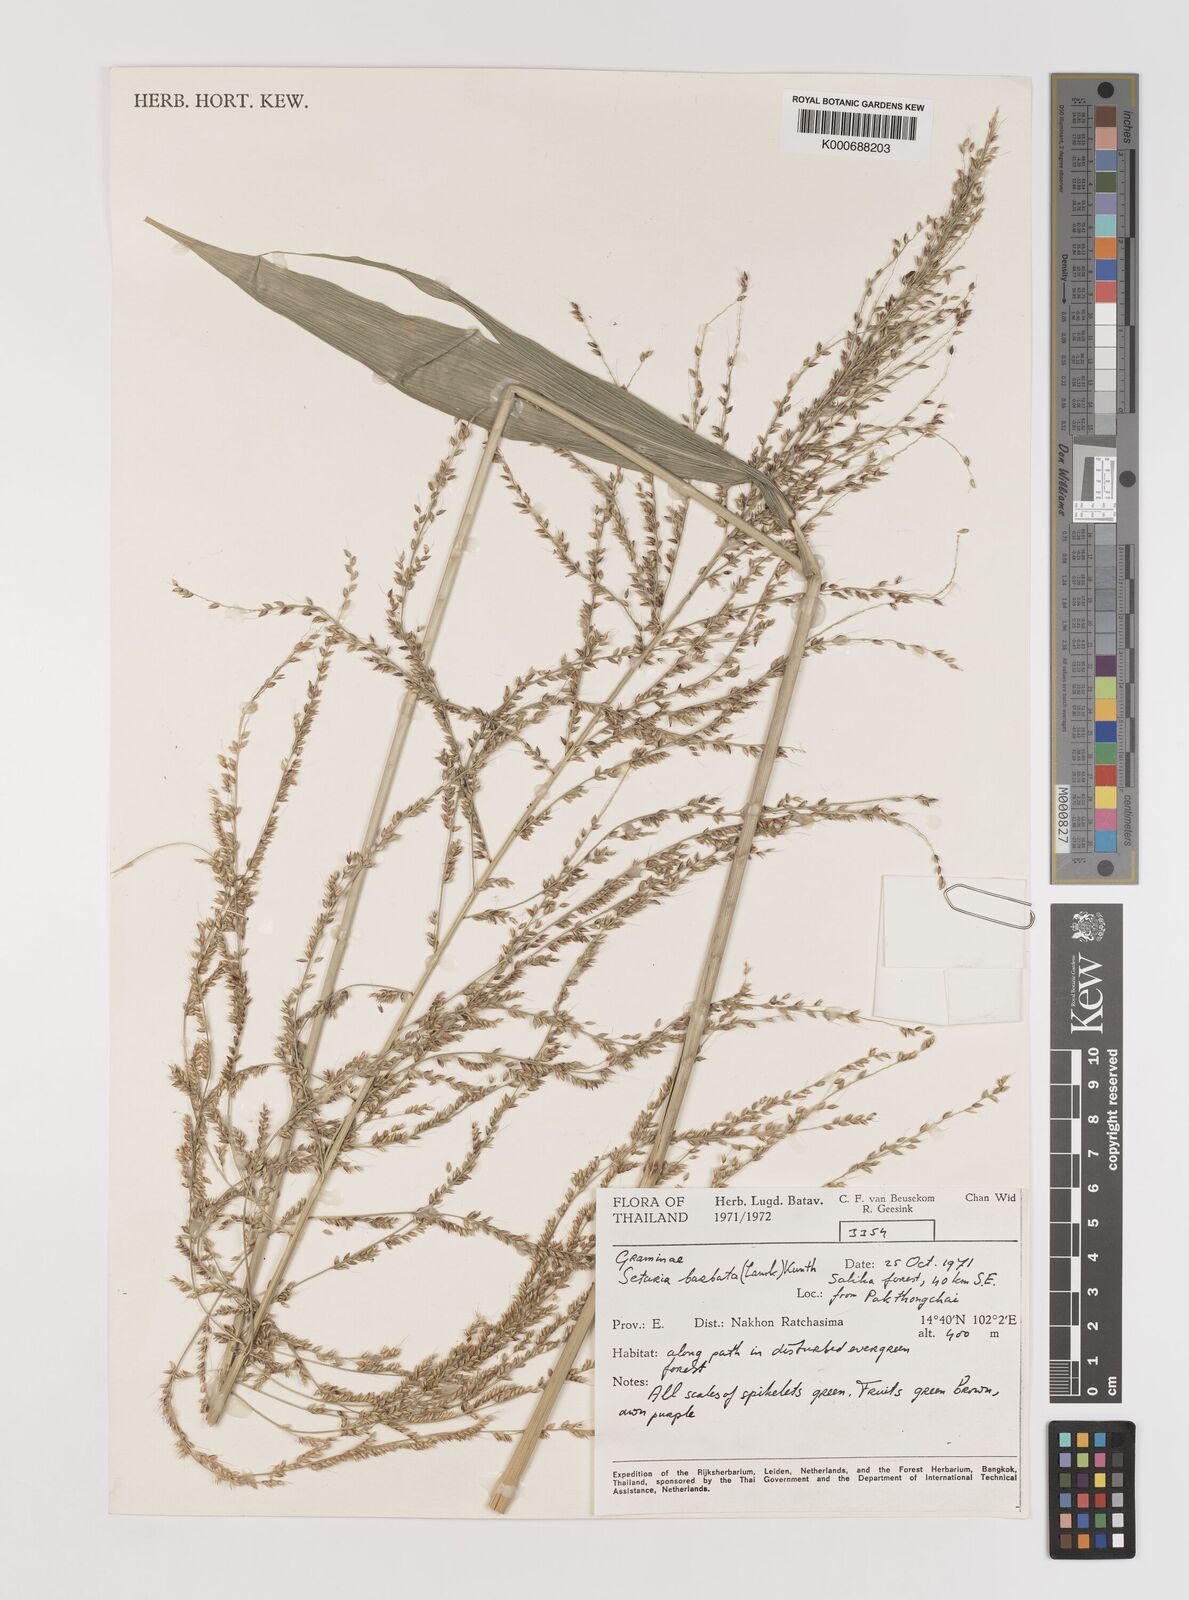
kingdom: Plantae
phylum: Tracheophyta
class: Liliopsida
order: Poales
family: Poaceae
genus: Setaria
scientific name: Setaria palmifolia
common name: Broadleaved bristlegrass
